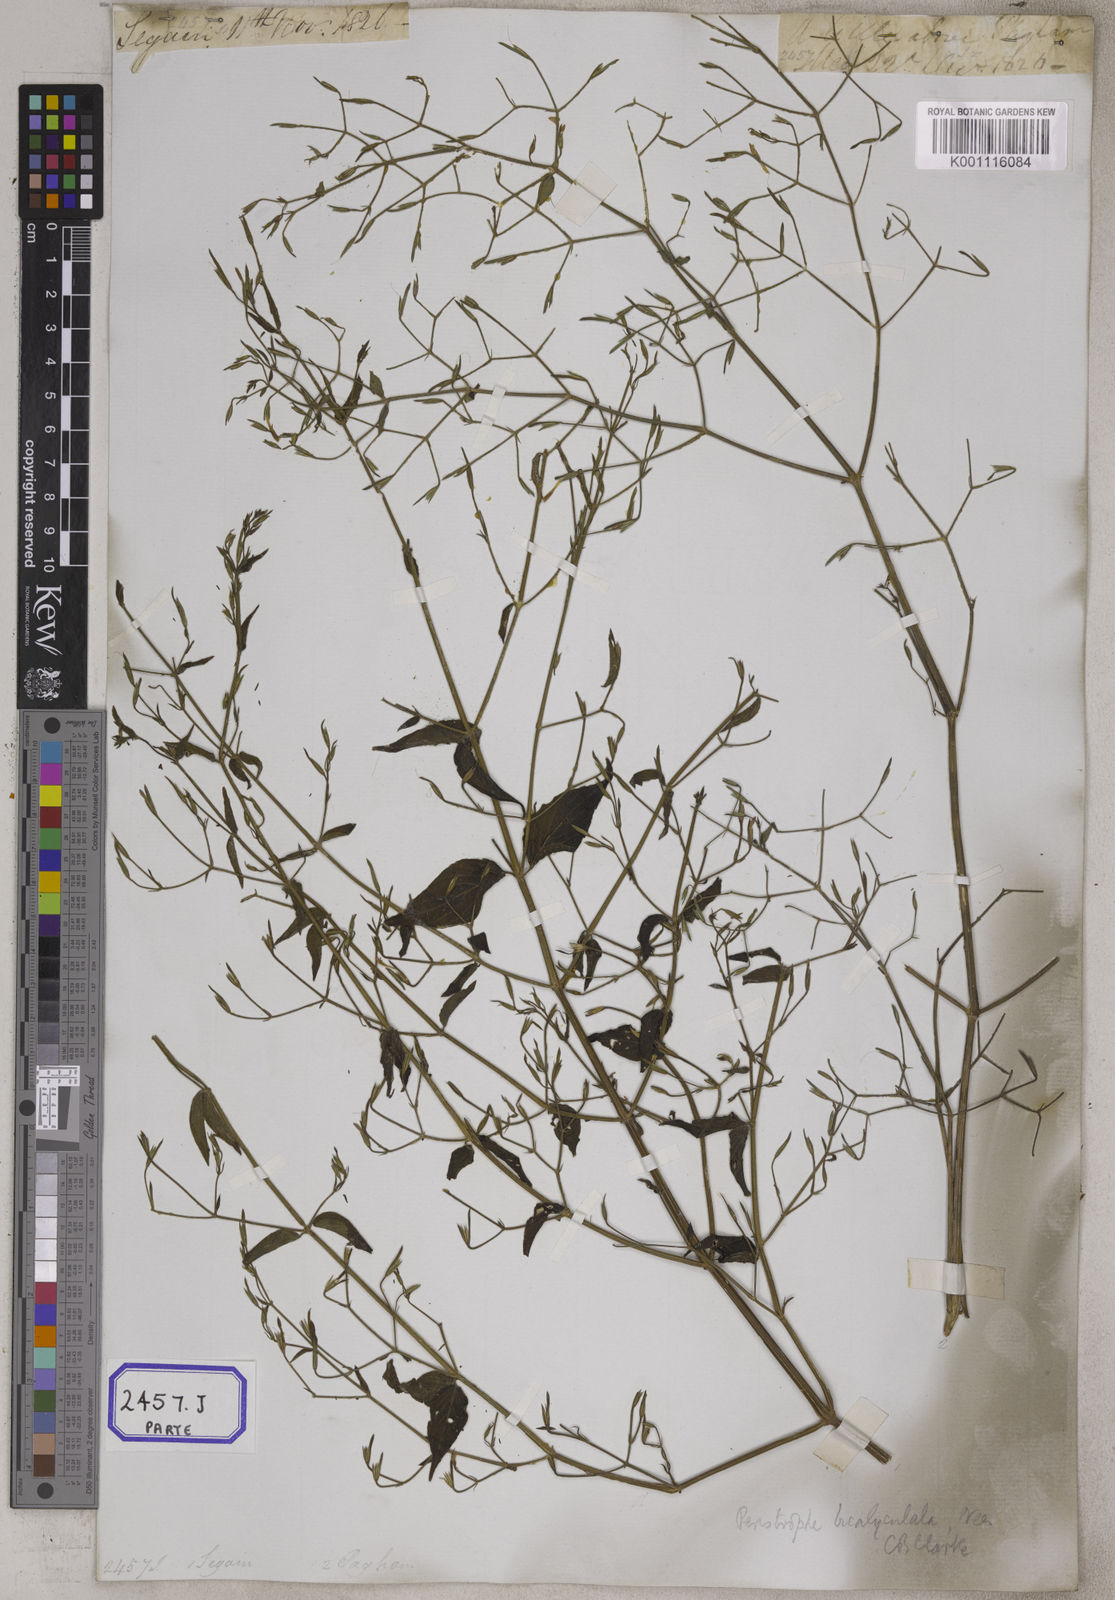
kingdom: Plantae
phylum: Tracheophyta
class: Magnoliopsida
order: Lamiales
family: Acanthaceae
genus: Dicliptera
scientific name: Dicliptera paniculata
